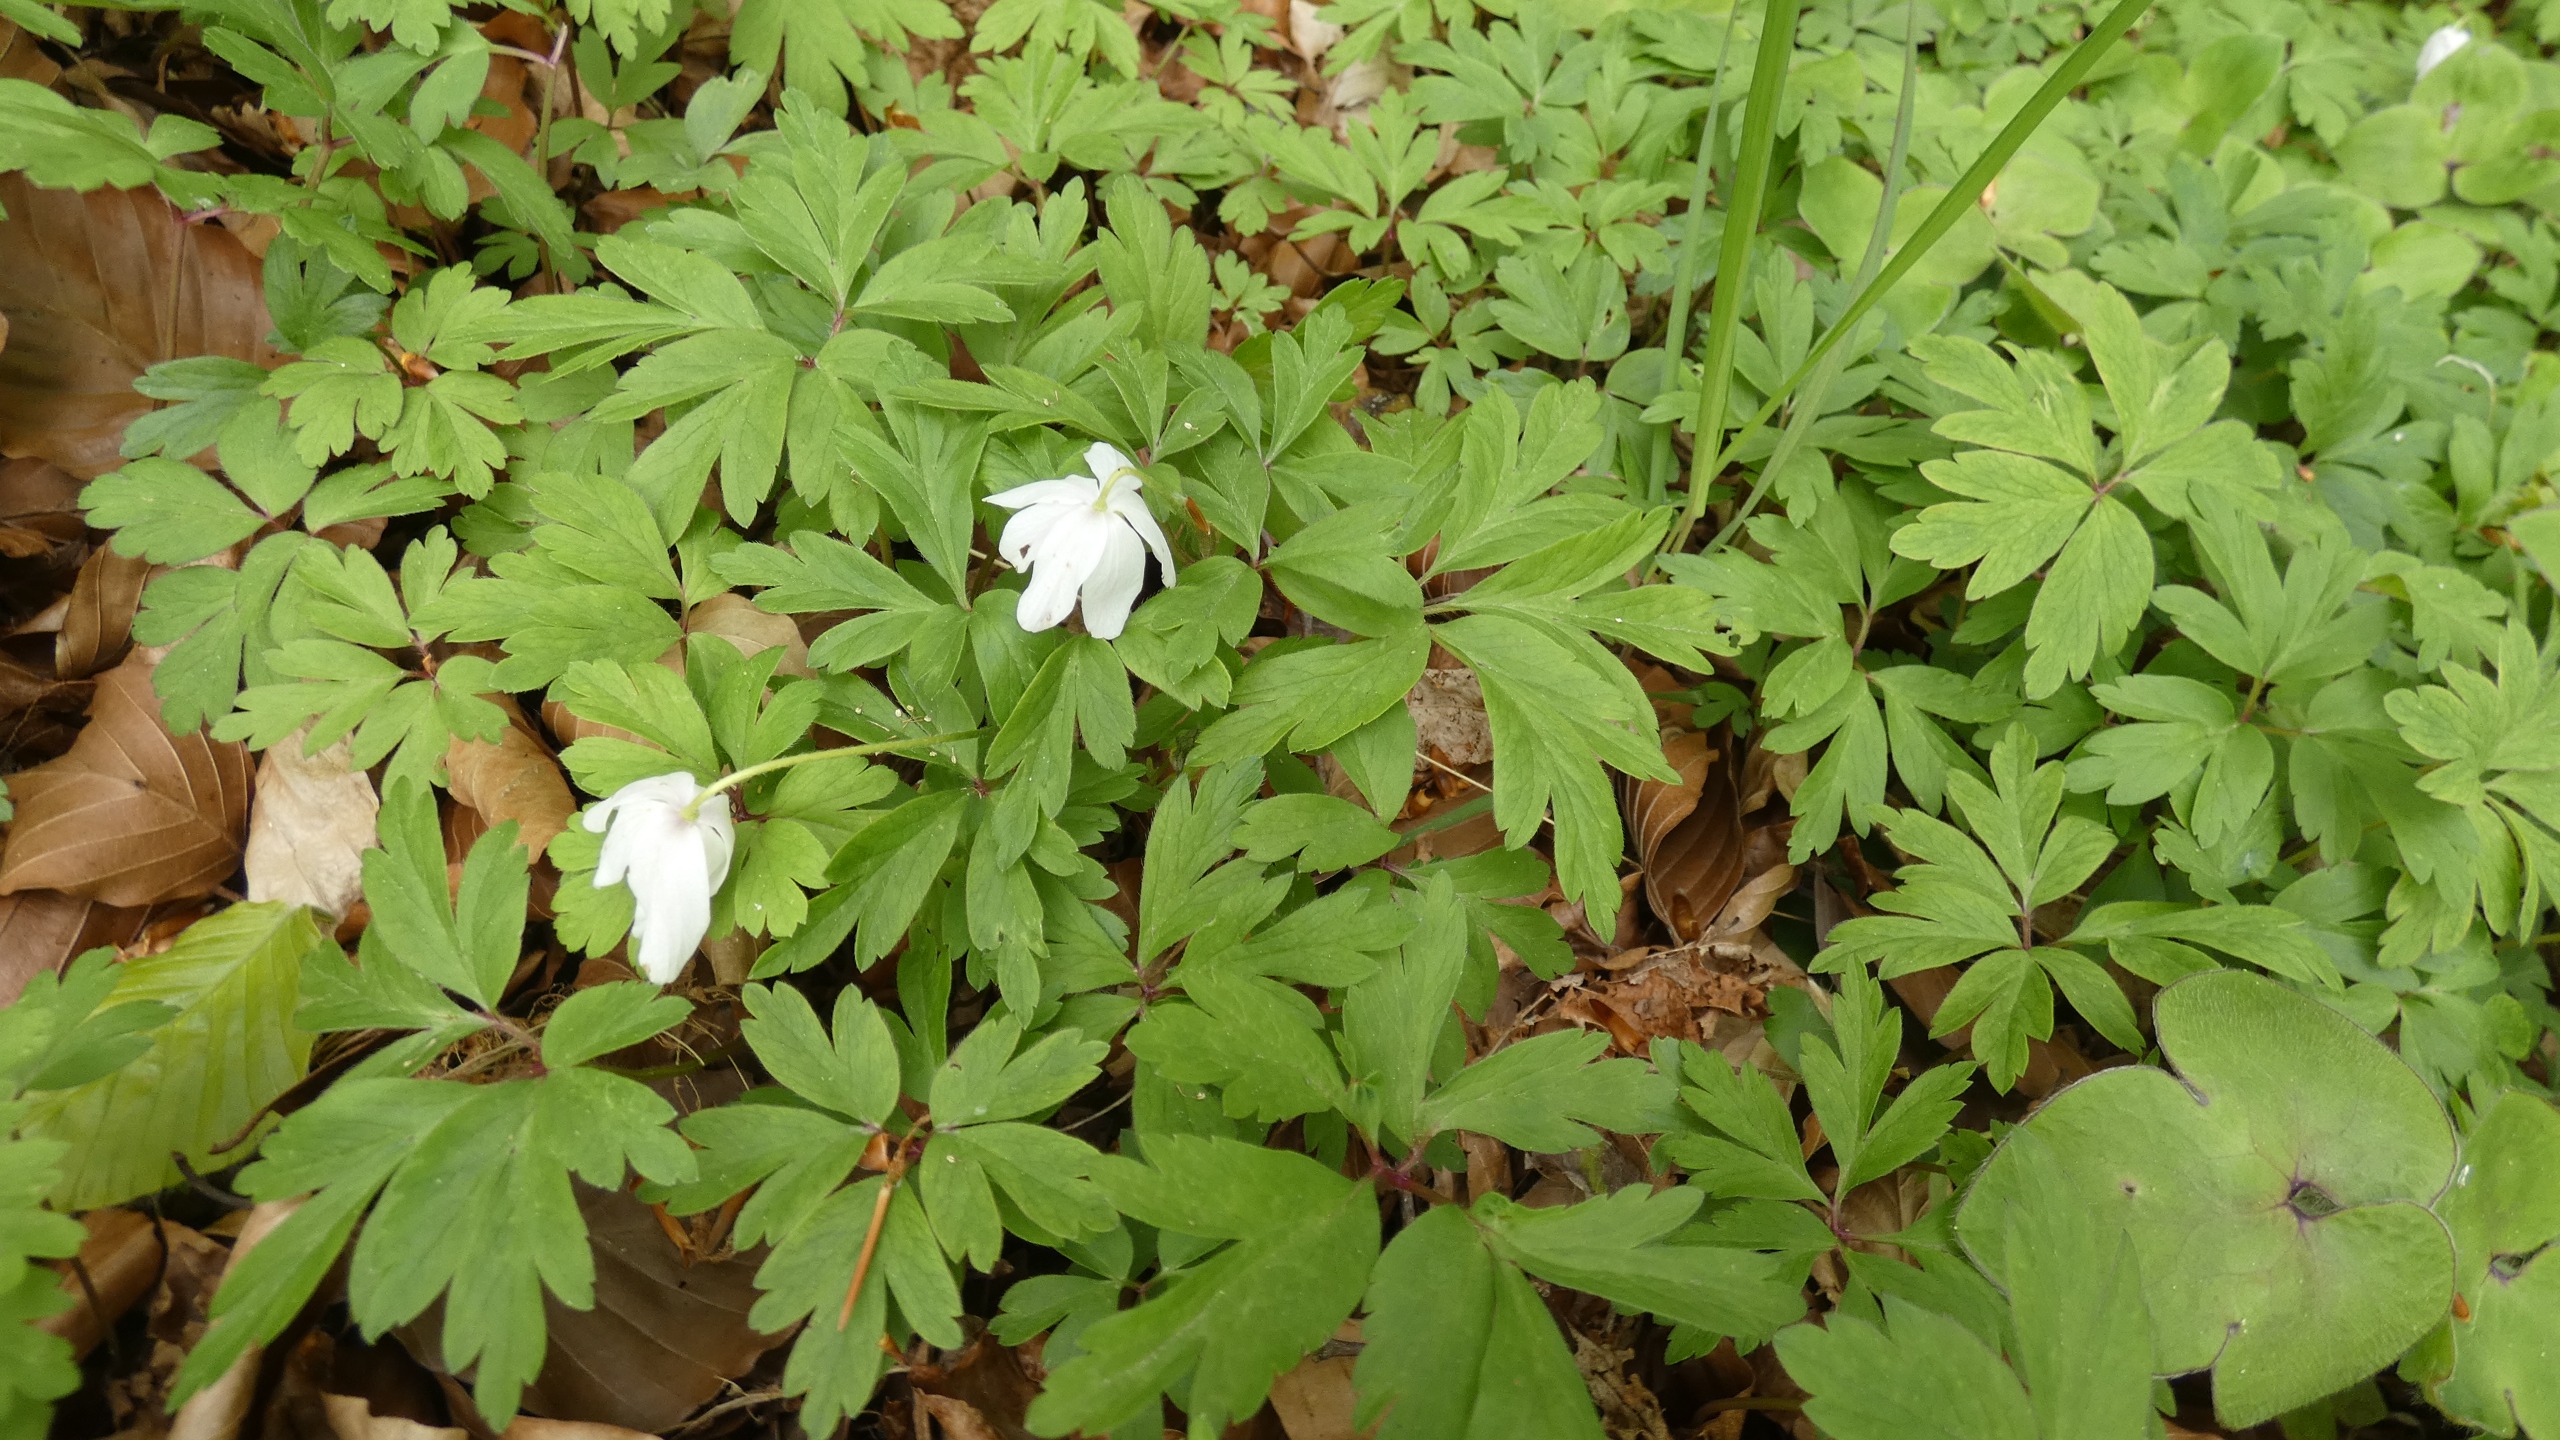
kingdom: Plantae
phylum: Tracheophyta
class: Magnoliopsida
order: Ranunculales
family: Ranunculaceae
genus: Anemone
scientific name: Anemone nemorosa
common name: Hvid anemone
